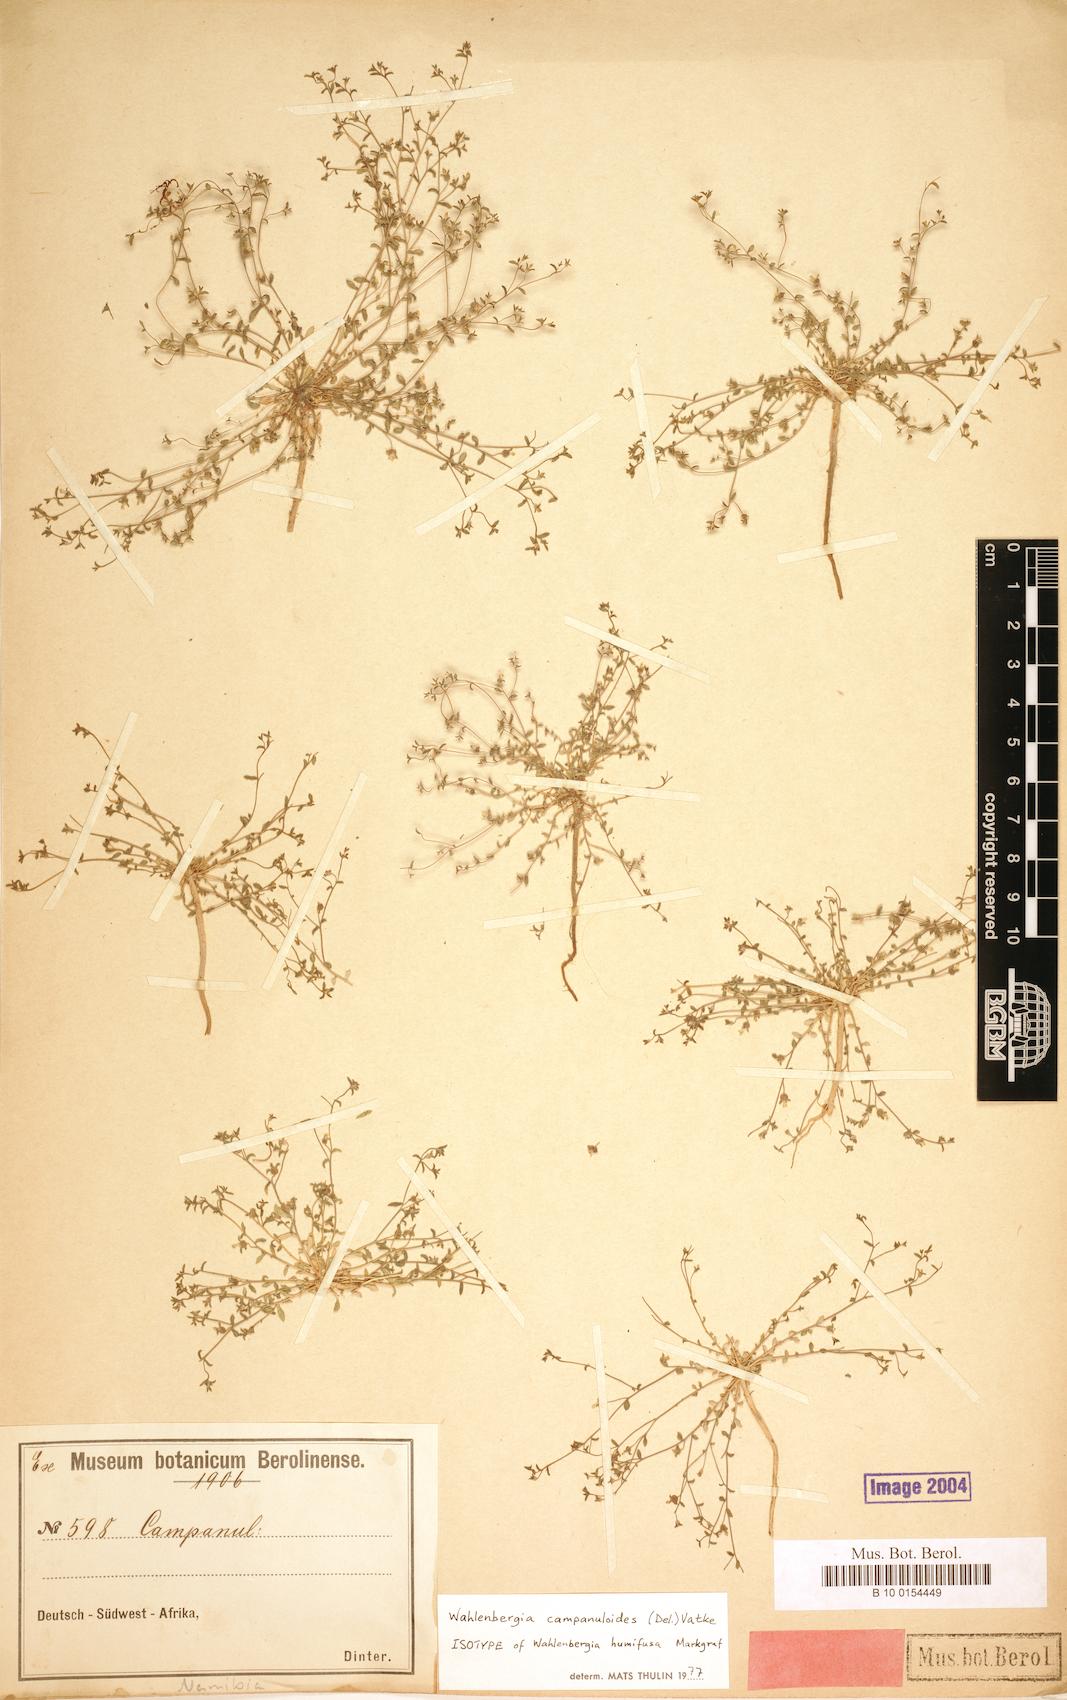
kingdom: Plantae
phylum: Tracheophyta
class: Magnoliopsida
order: Asterales
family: Campanulaceae
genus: Wahlenbergia
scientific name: Wahlenbergia campanuloides
